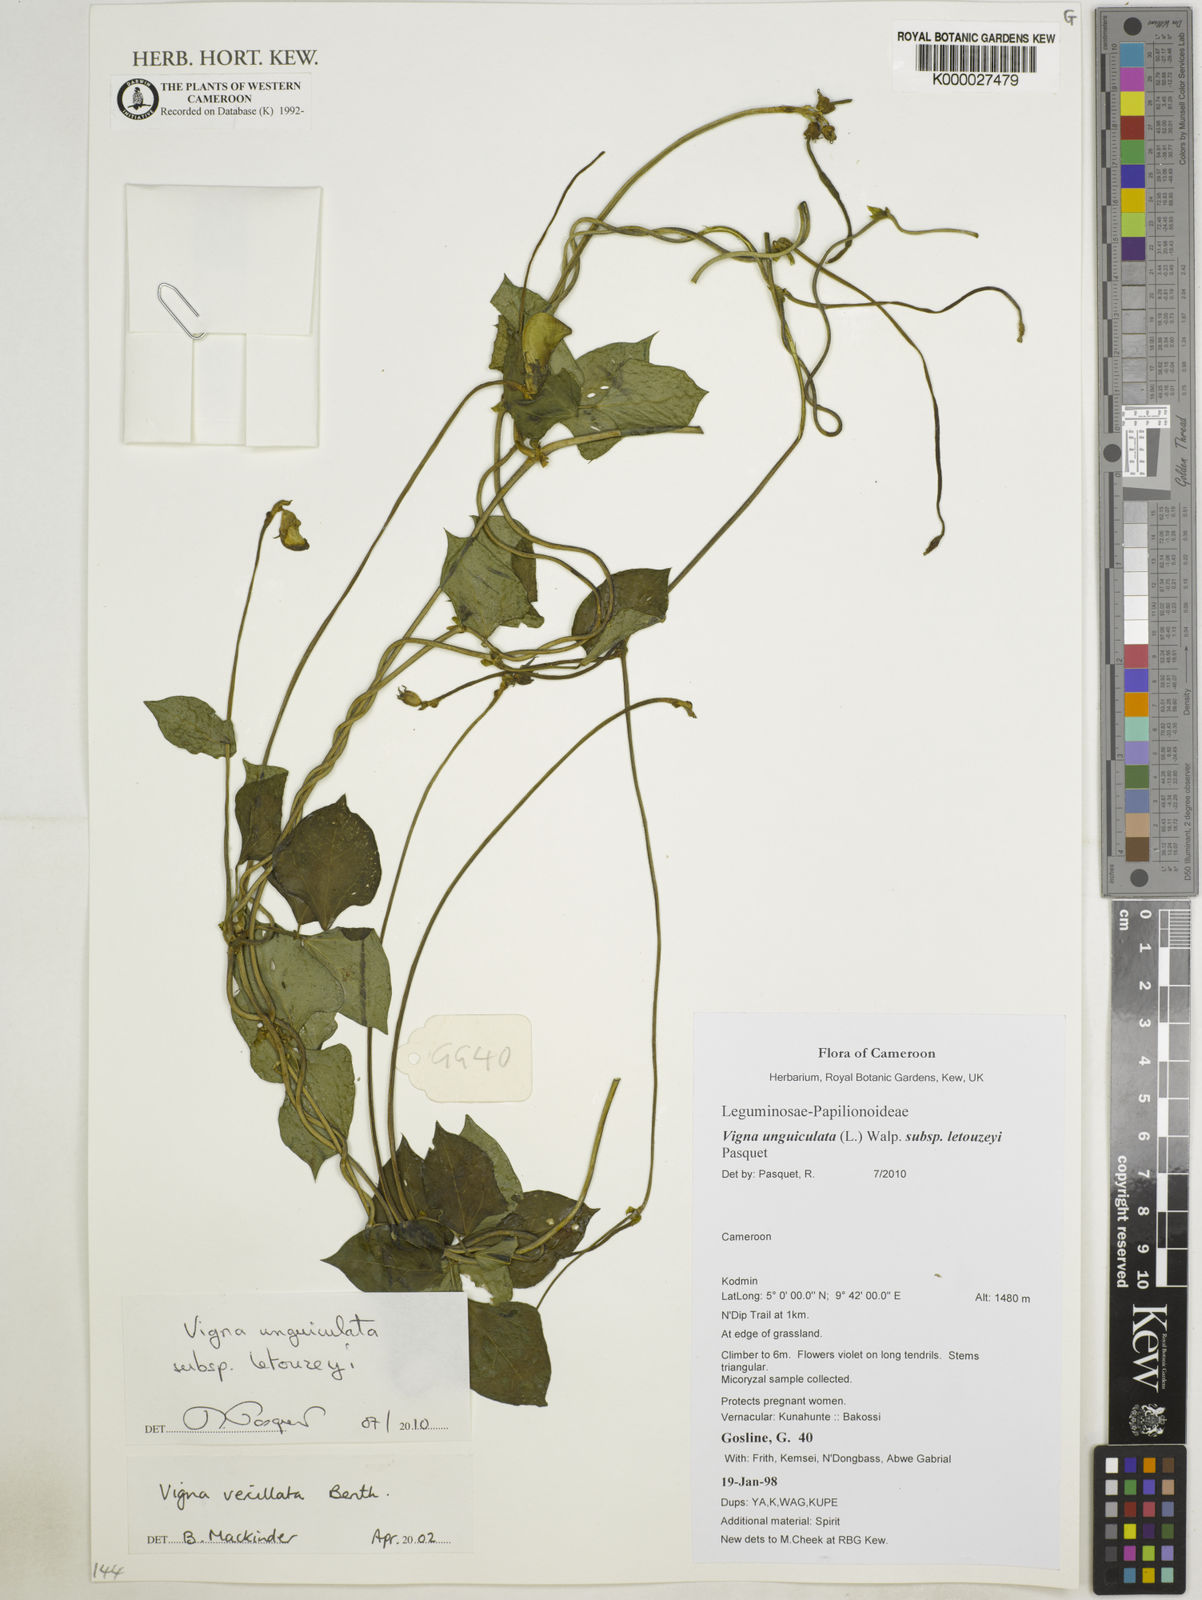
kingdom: Plantae
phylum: Tracheophyta
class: Magnoliopsida
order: Fabales
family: Fabaceae
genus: Vigna
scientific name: Vigna unguiculata
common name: Cowpea
